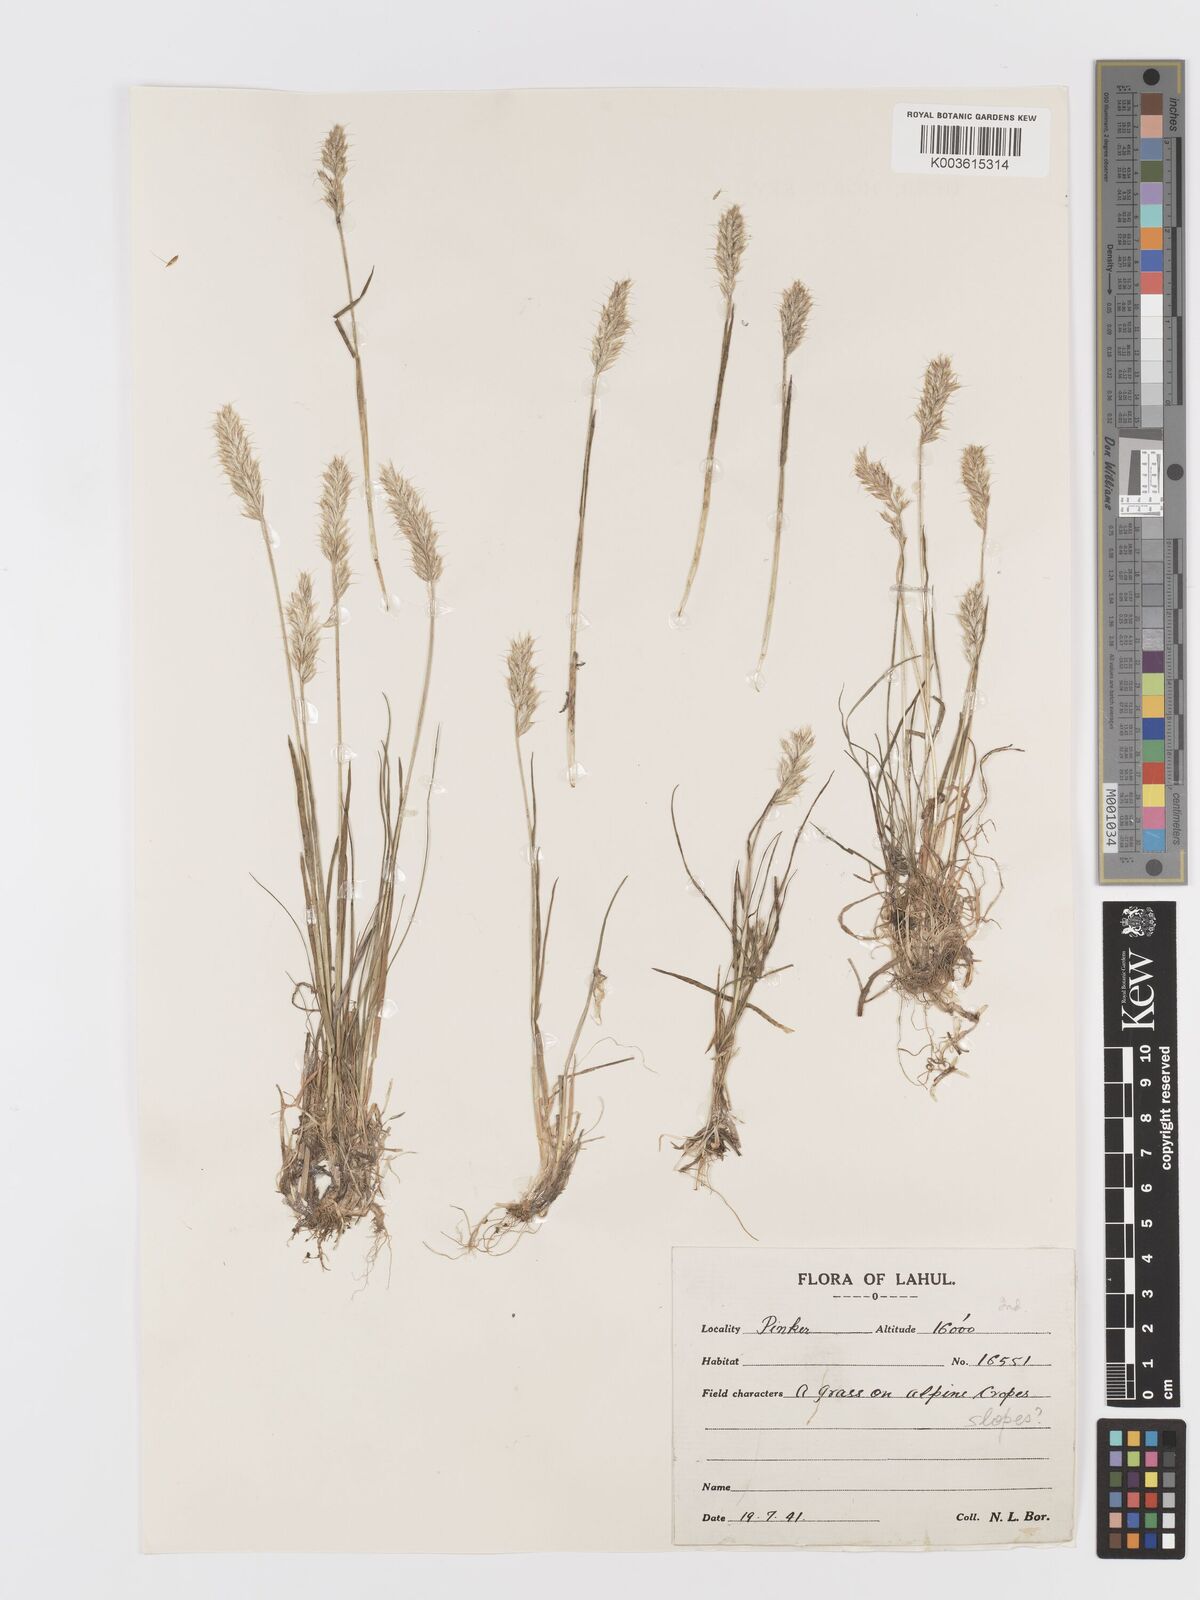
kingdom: Plantae
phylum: Tracheophyta
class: Liliopsida
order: Poales
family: Poaceae
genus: Koeleria
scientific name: Koeleria spicata
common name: Mountain trisetum
